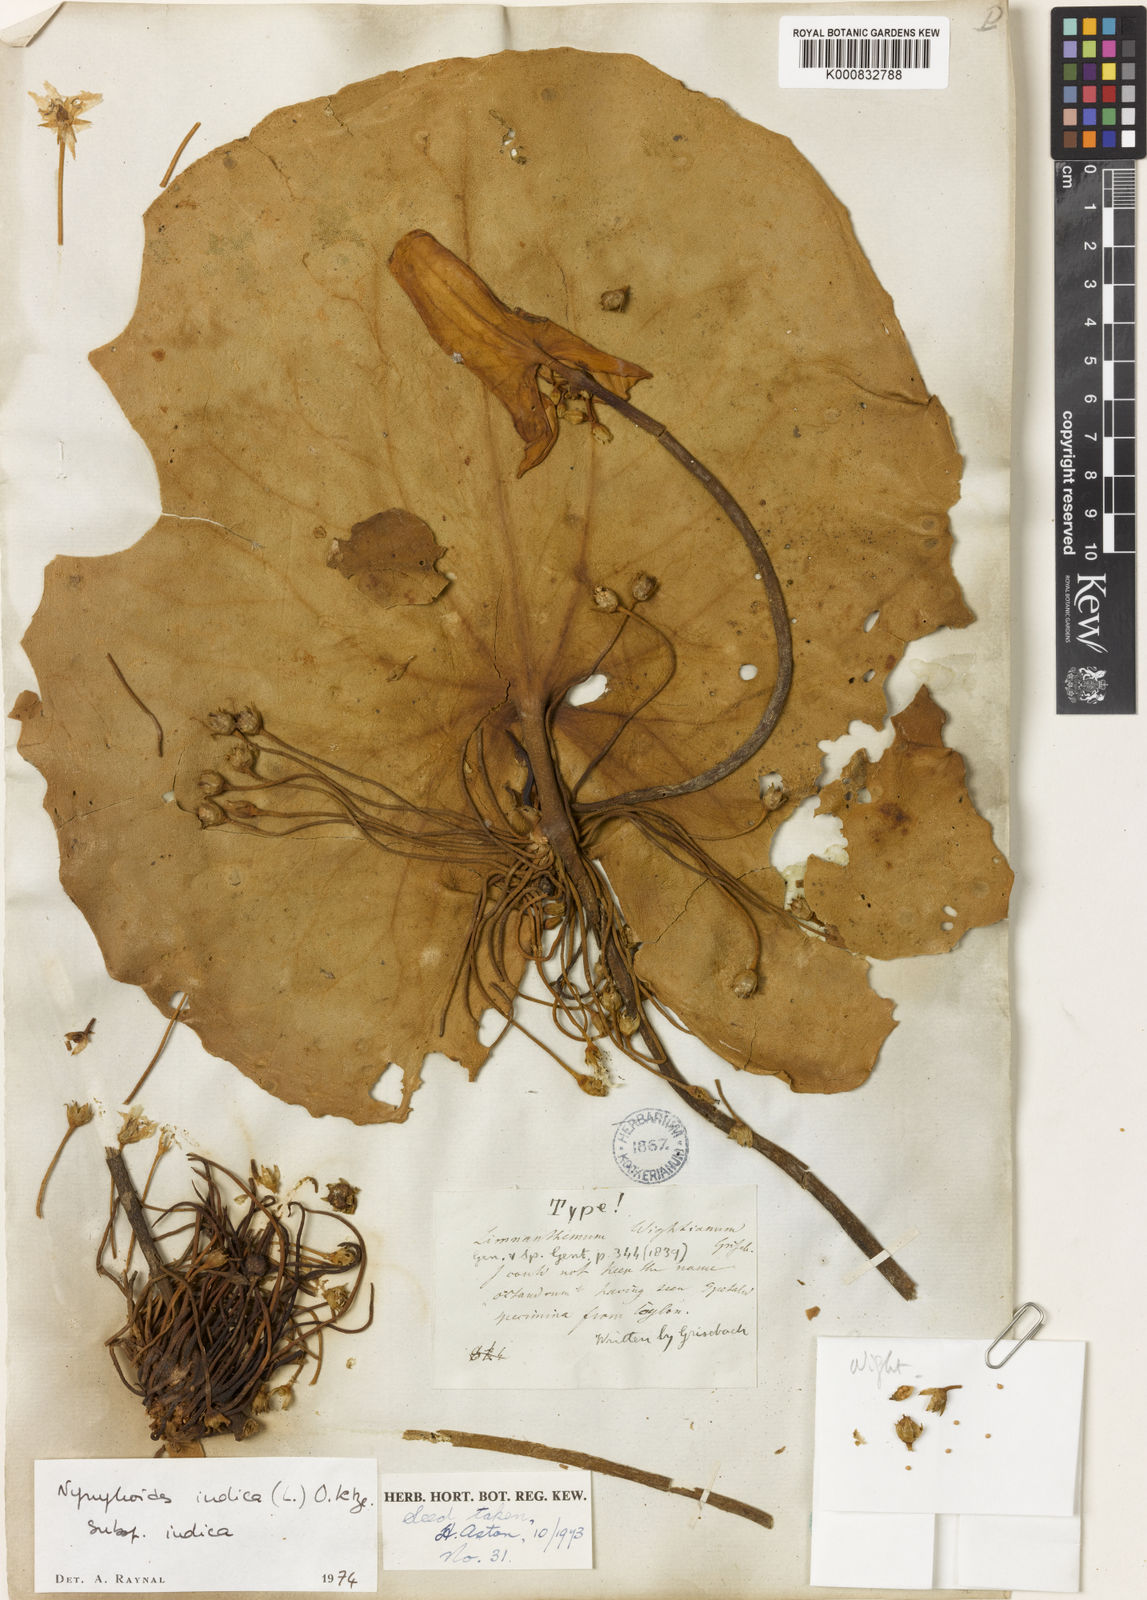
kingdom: Plantae
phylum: Tracheophyta
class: Magnoliopsida
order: Asterales
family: Menyanthaceae
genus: Nymphoides
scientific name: Nymphoides indica
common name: Water-snowflake
